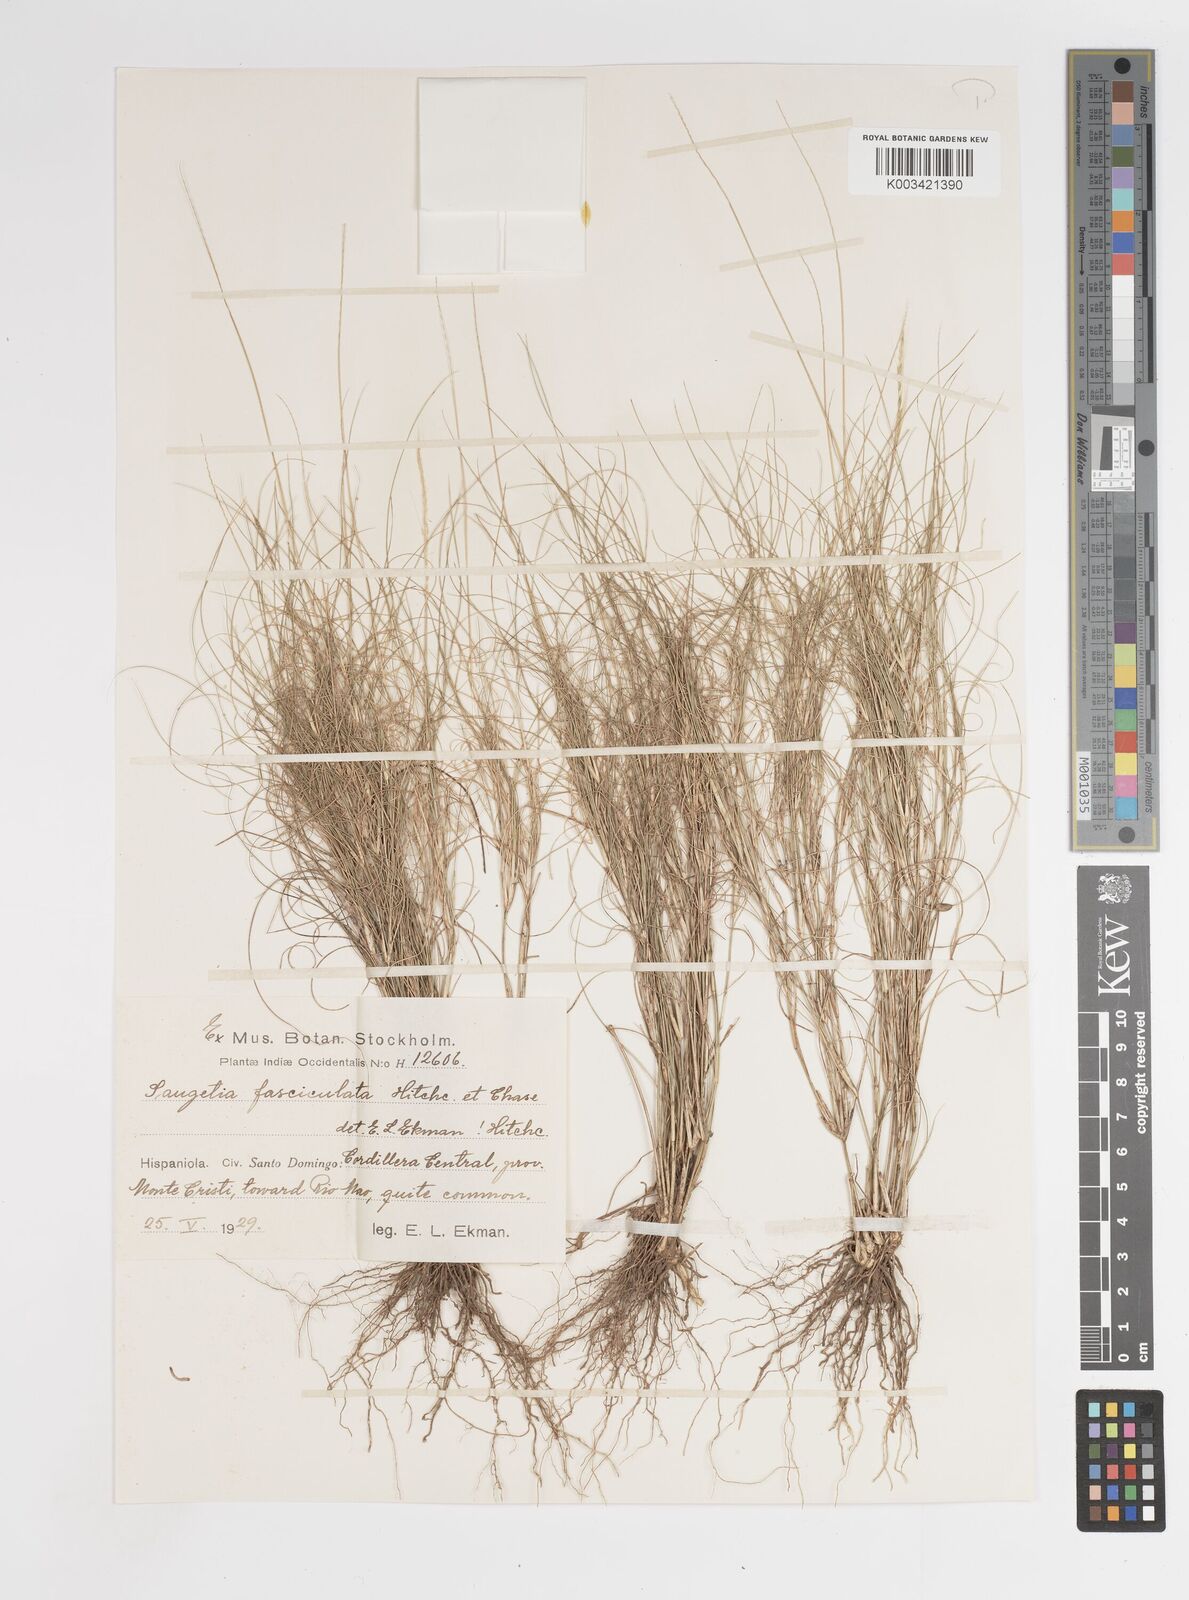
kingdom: Plantae
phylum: Tracheophyta
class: Liliopsida
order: Poales
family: Poaceae
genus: Enteropogon
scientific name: Enteropogon
